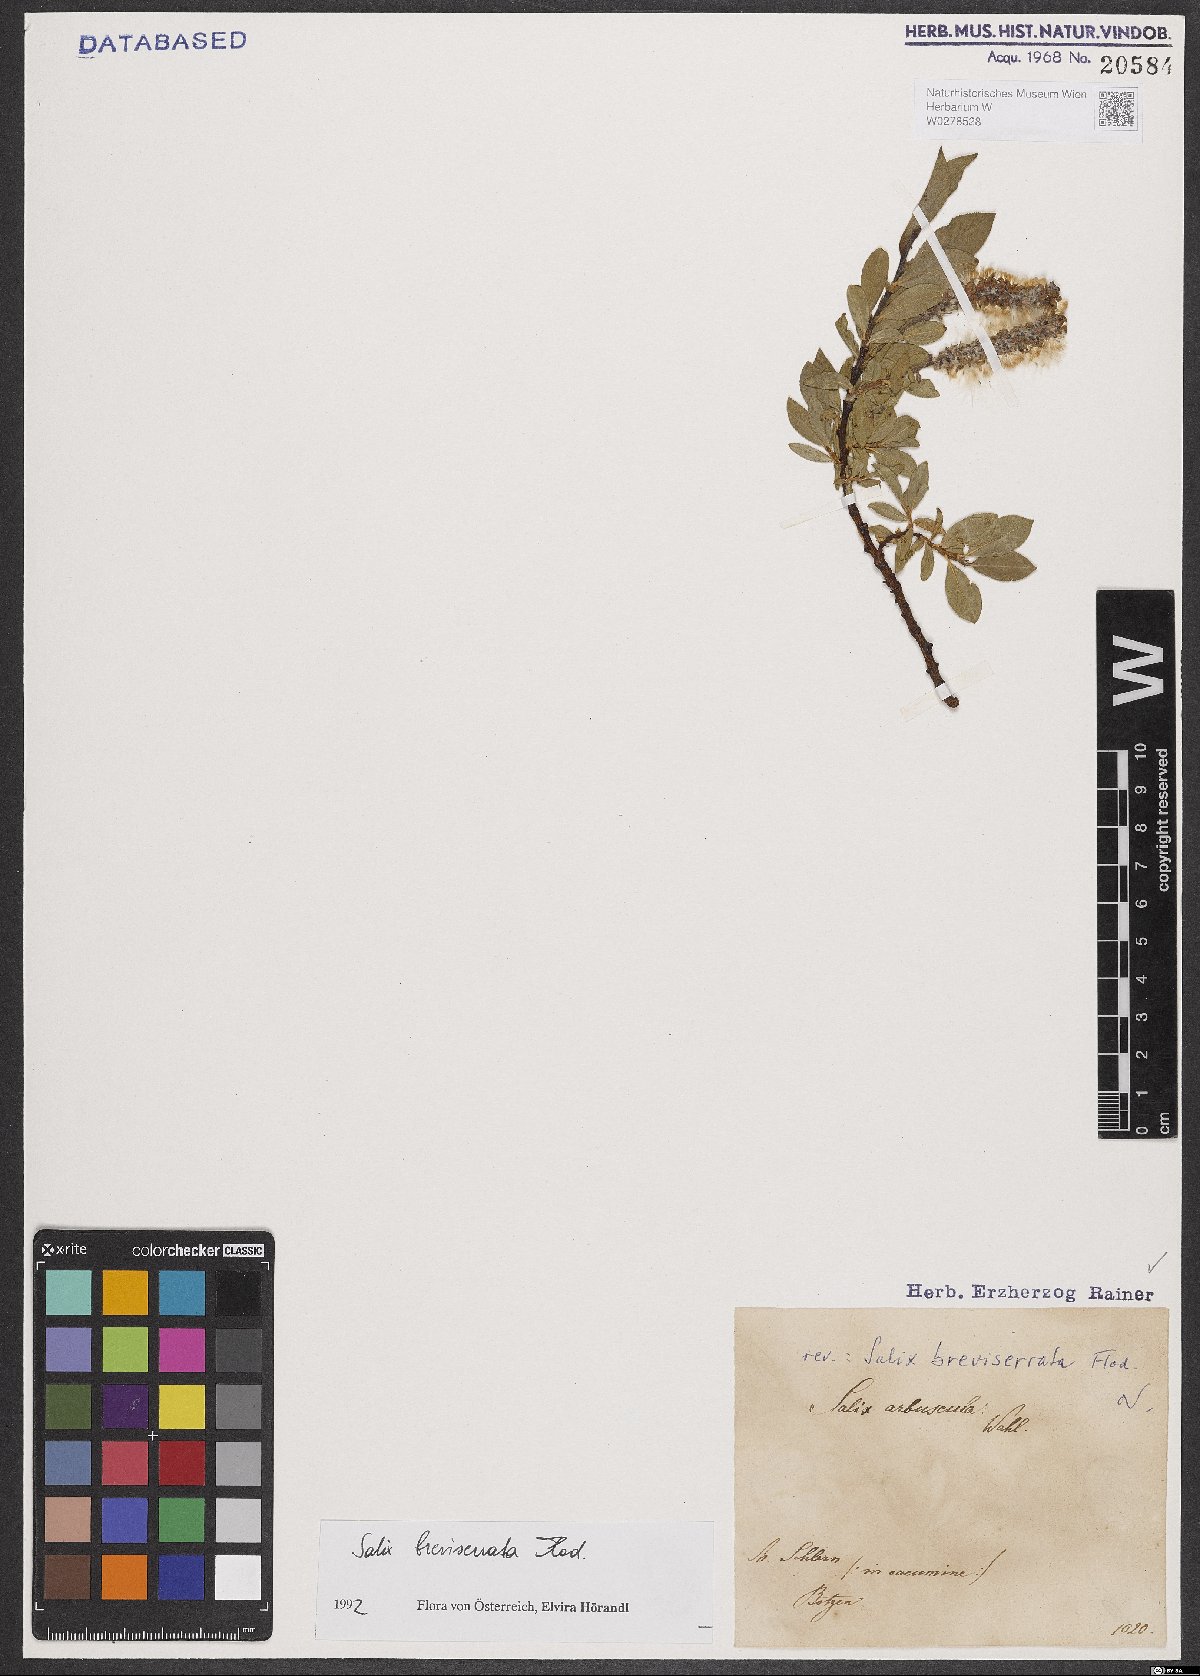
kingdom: Plantae
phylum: Tracheophyta
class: Magnoliopsida
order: Malpighiales
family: Salicaceae
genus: Salix
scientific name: Salix breviserrata
